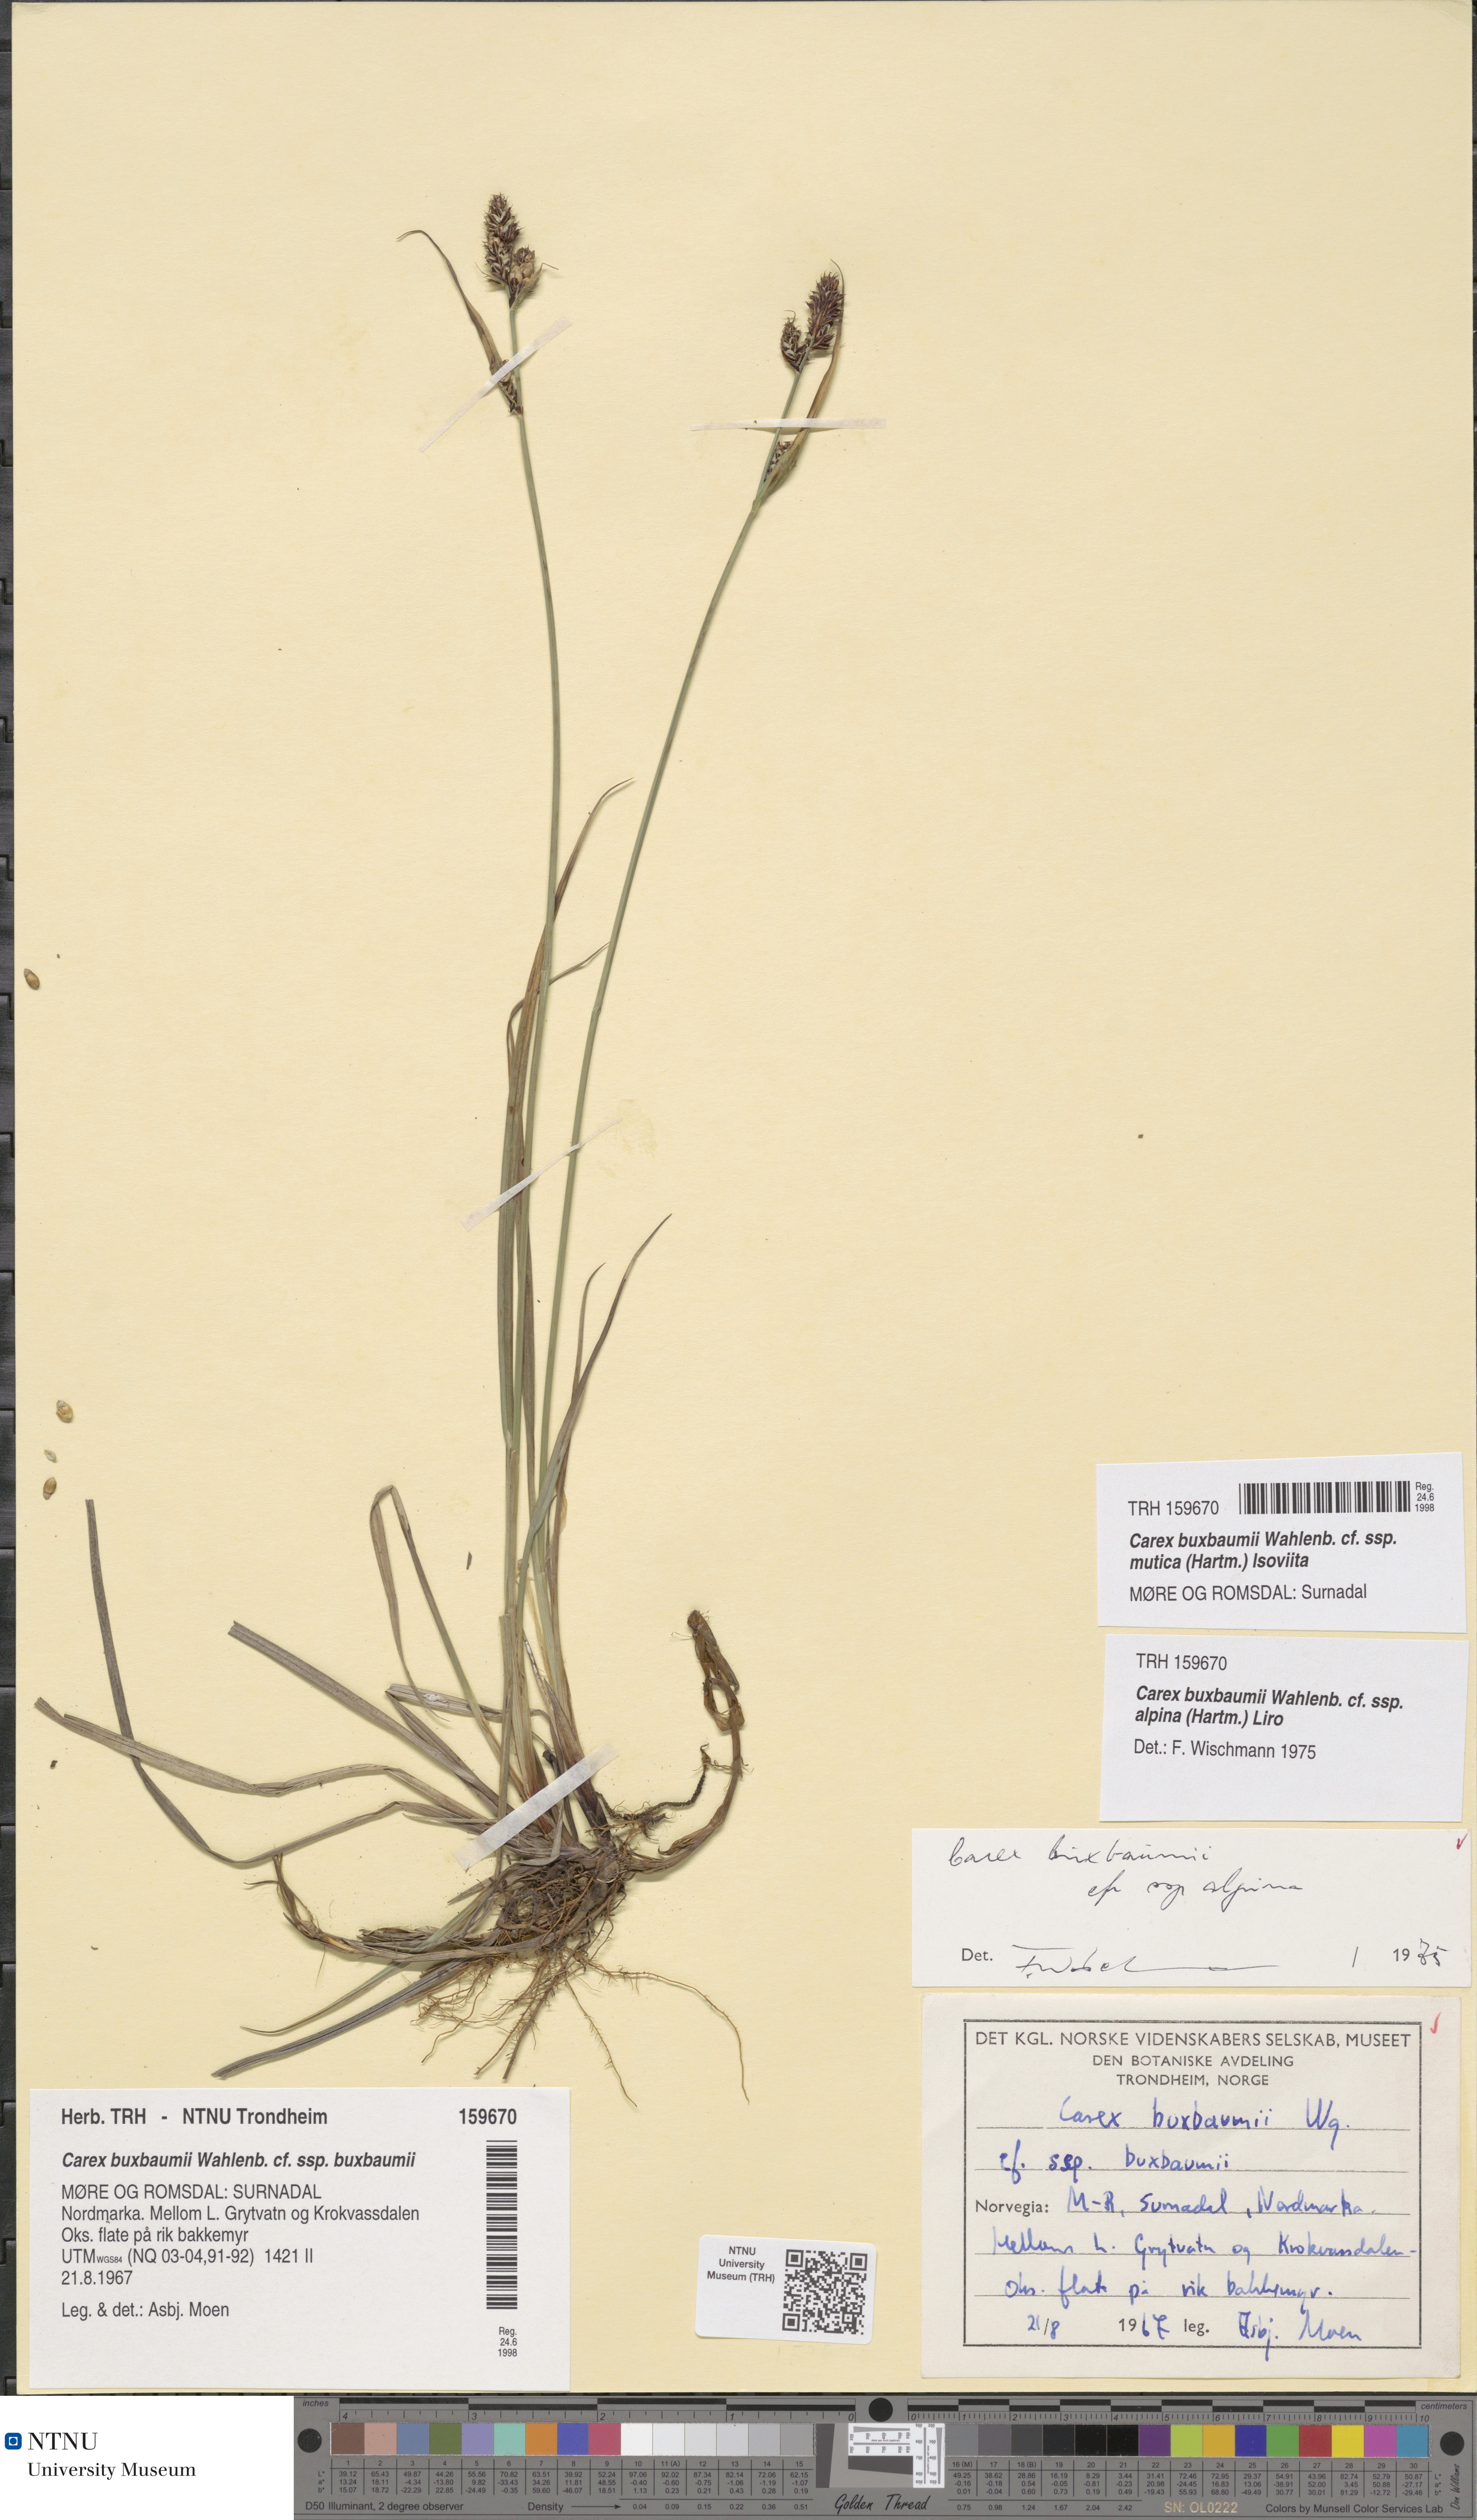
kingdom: Plantae
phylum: Tracheophyta
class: Liliopsida
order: Poales
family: Cyperaceae
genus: Carex
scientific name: Carex adelostoma
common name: Circumpolar sedge
